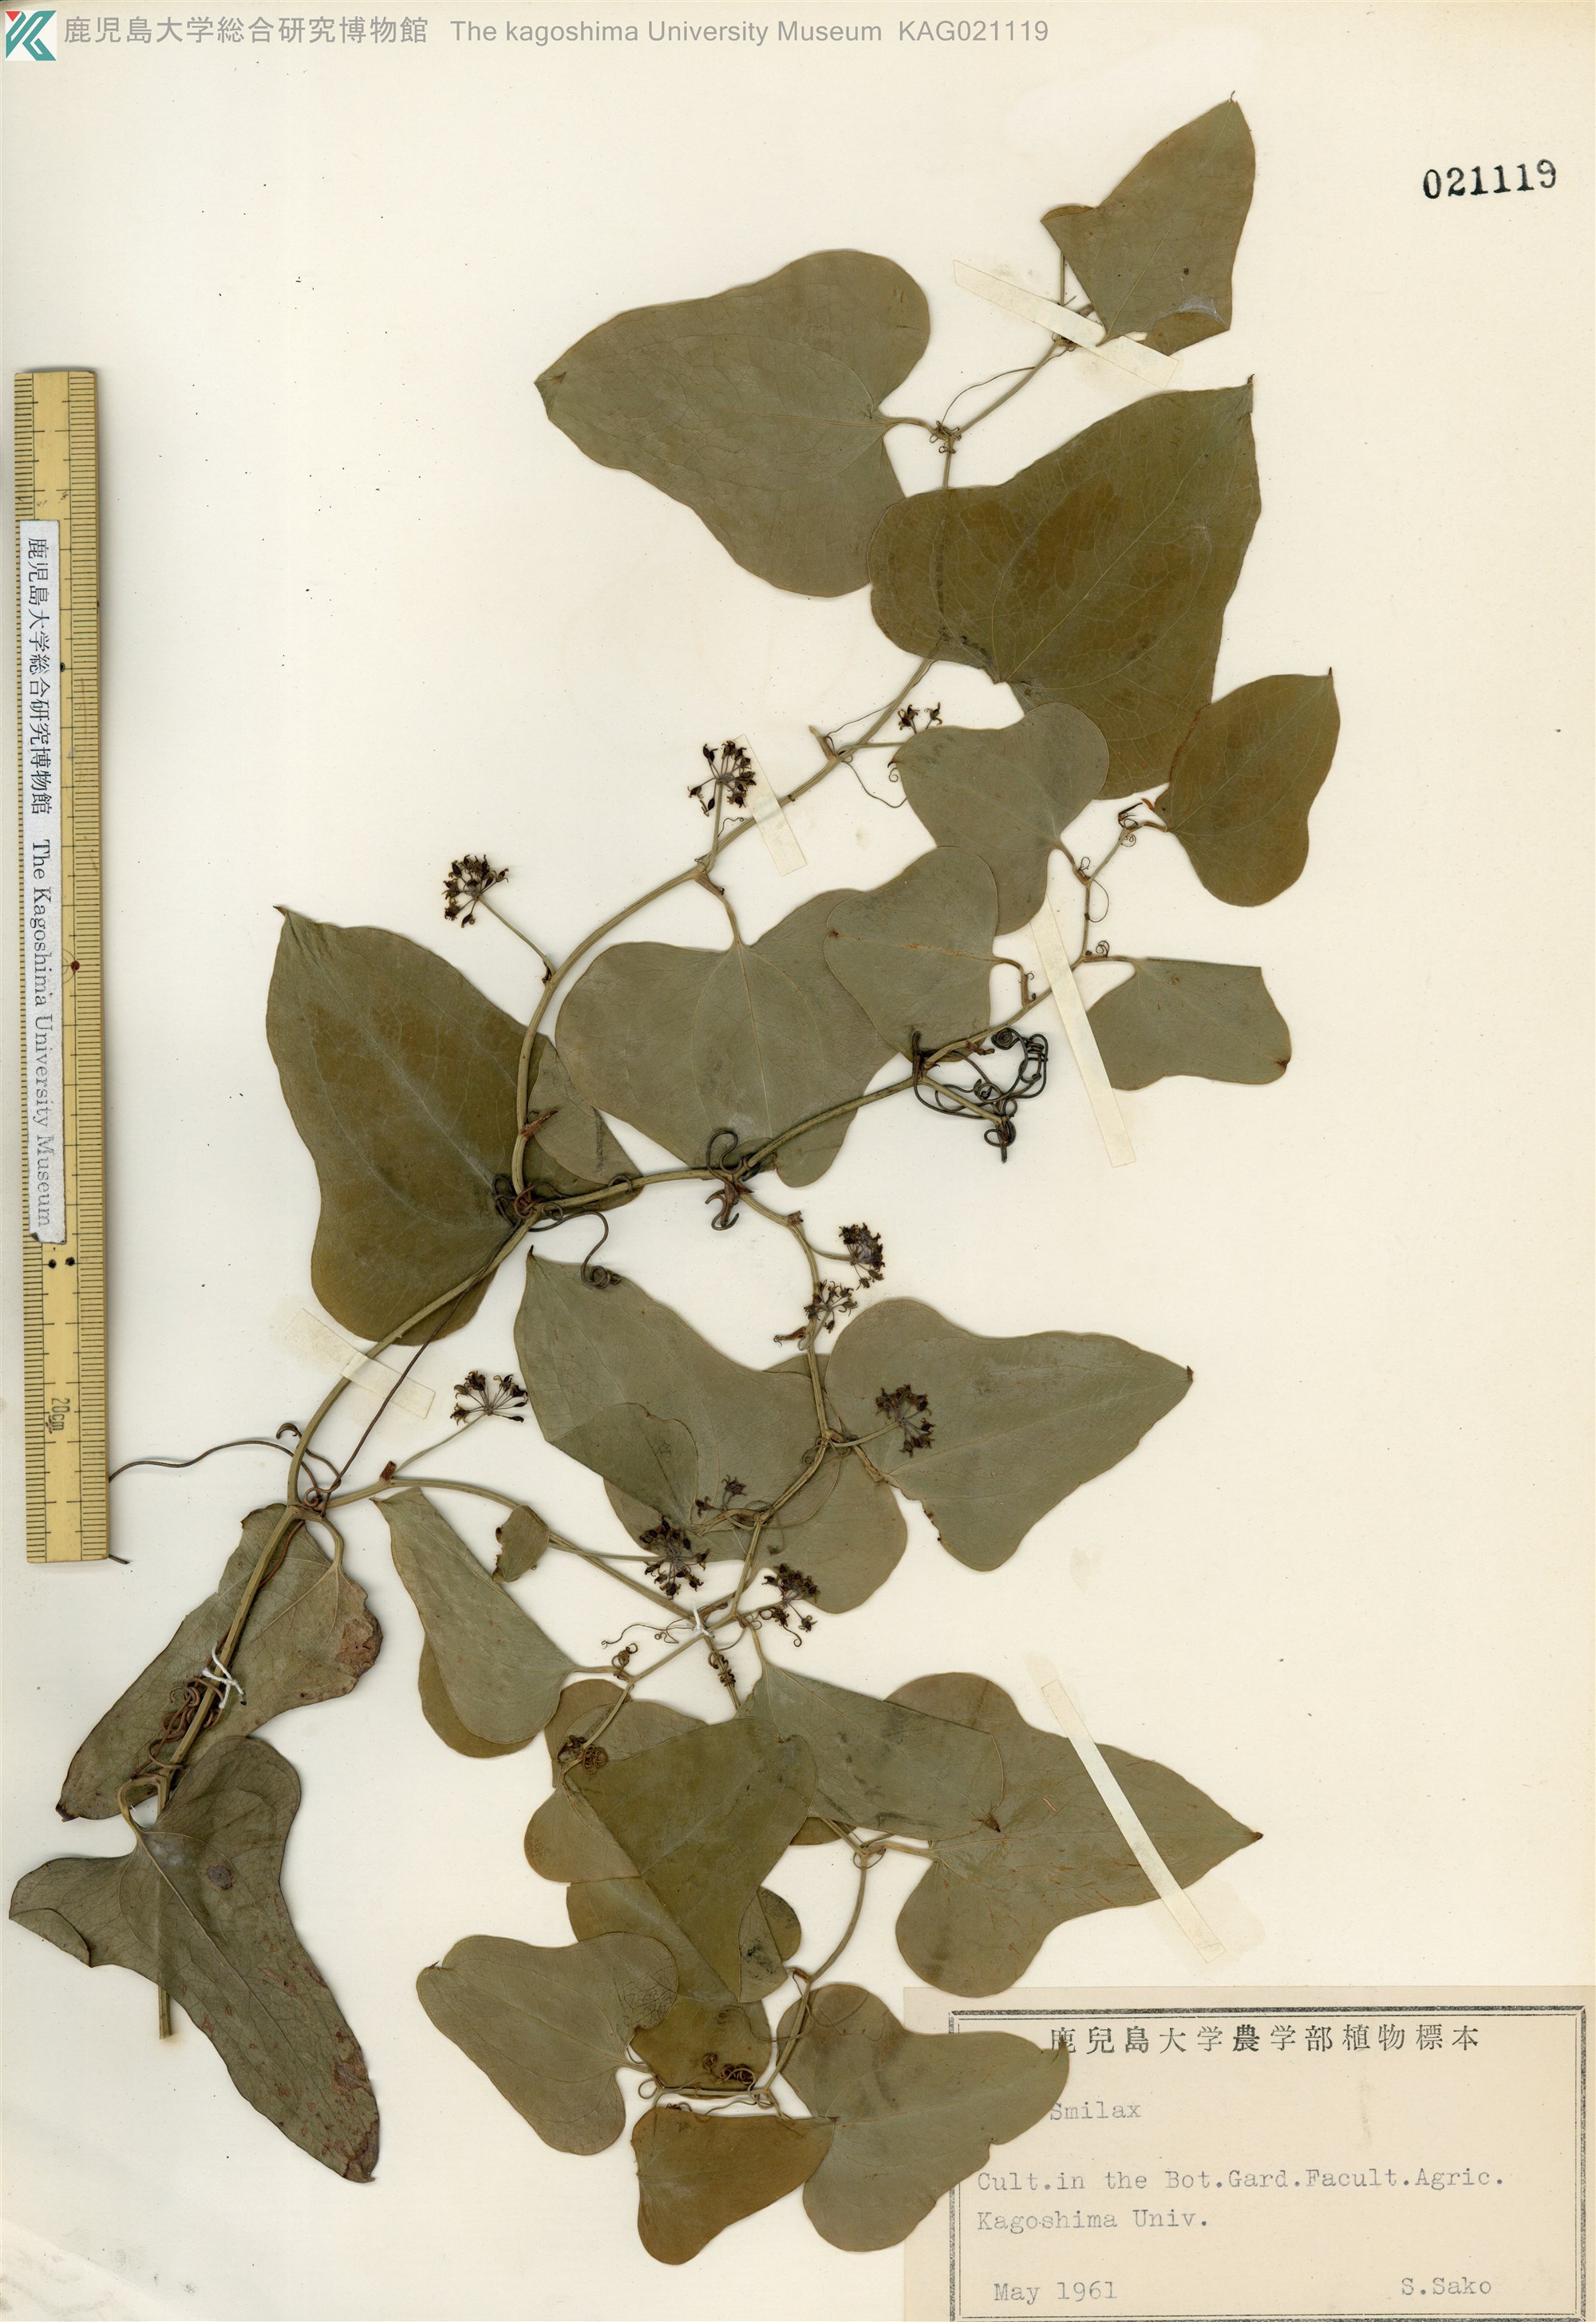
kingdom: Plantae
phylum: Tracheophyta
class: Liliopsida
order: Liliales
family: Smilacaceae
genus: Smilax
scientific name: Smilax bona-nox
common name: Catbrier
